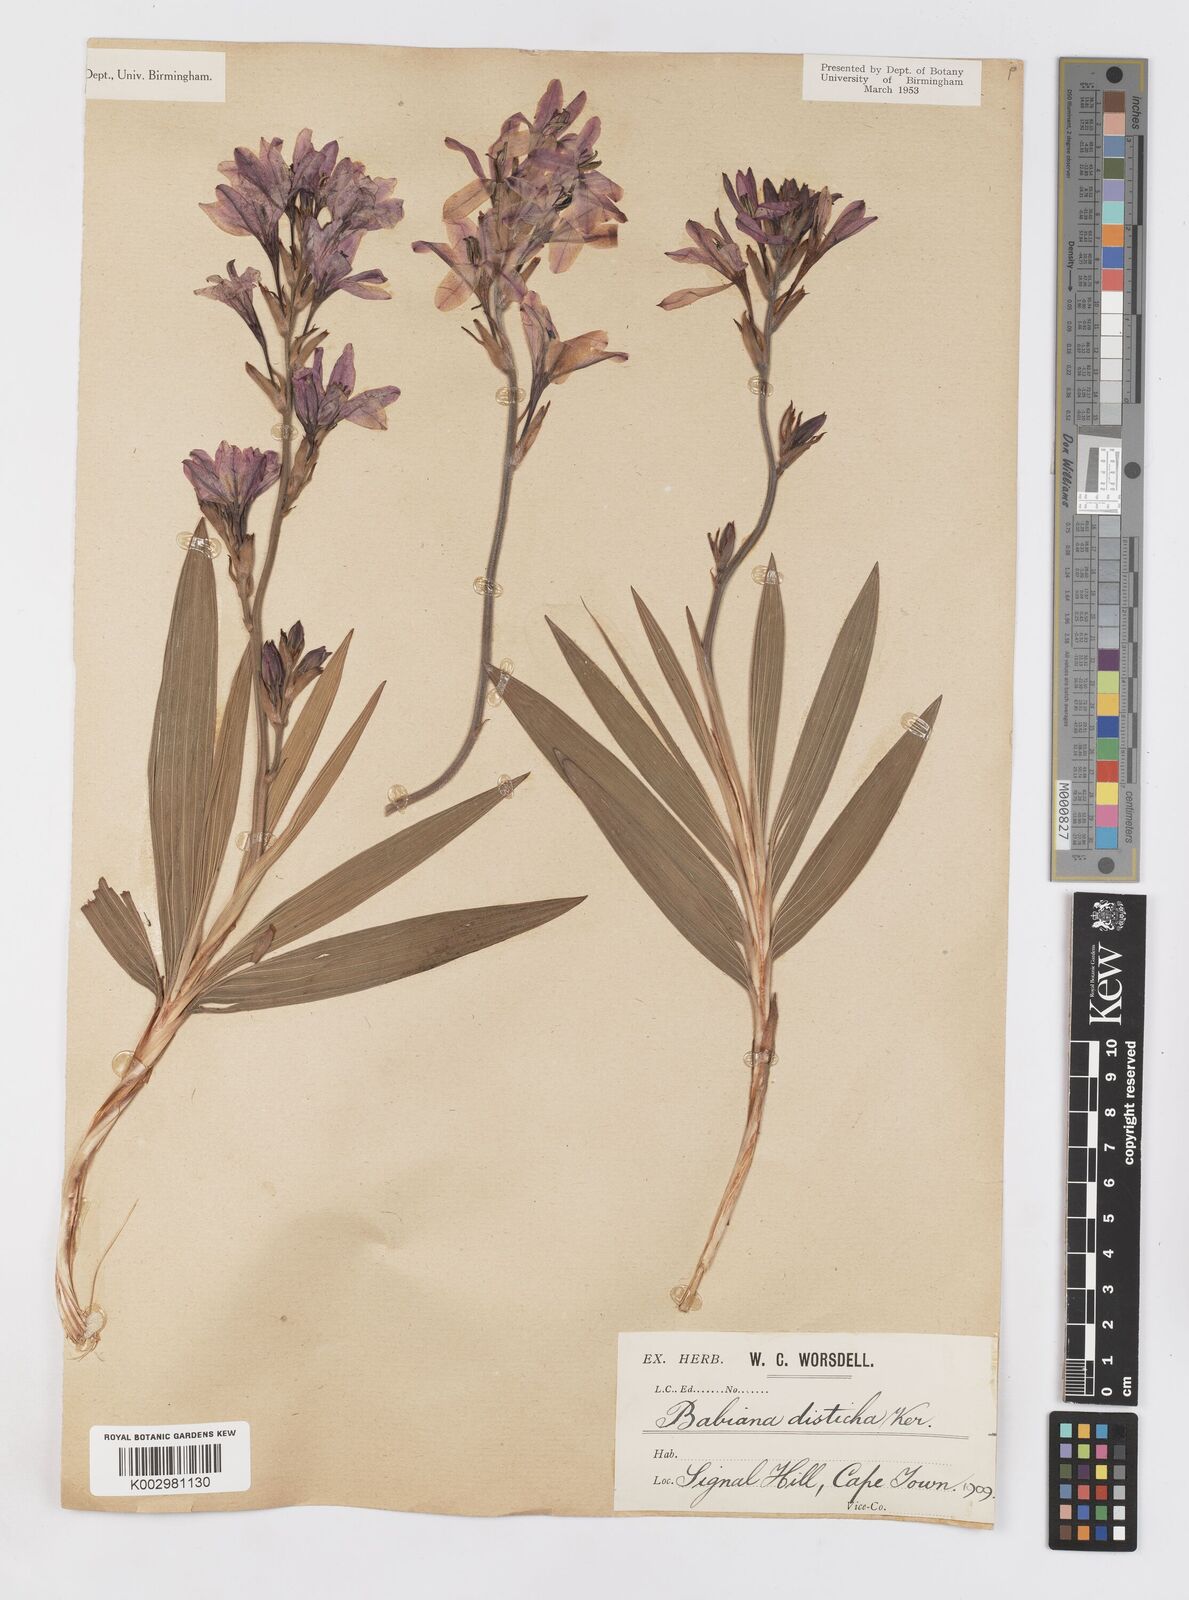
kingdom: Plantae
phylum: Tracheophyta
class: Liliopsida
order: Asparagales
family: Iridaceae
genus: Babiana
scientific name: Babiana
